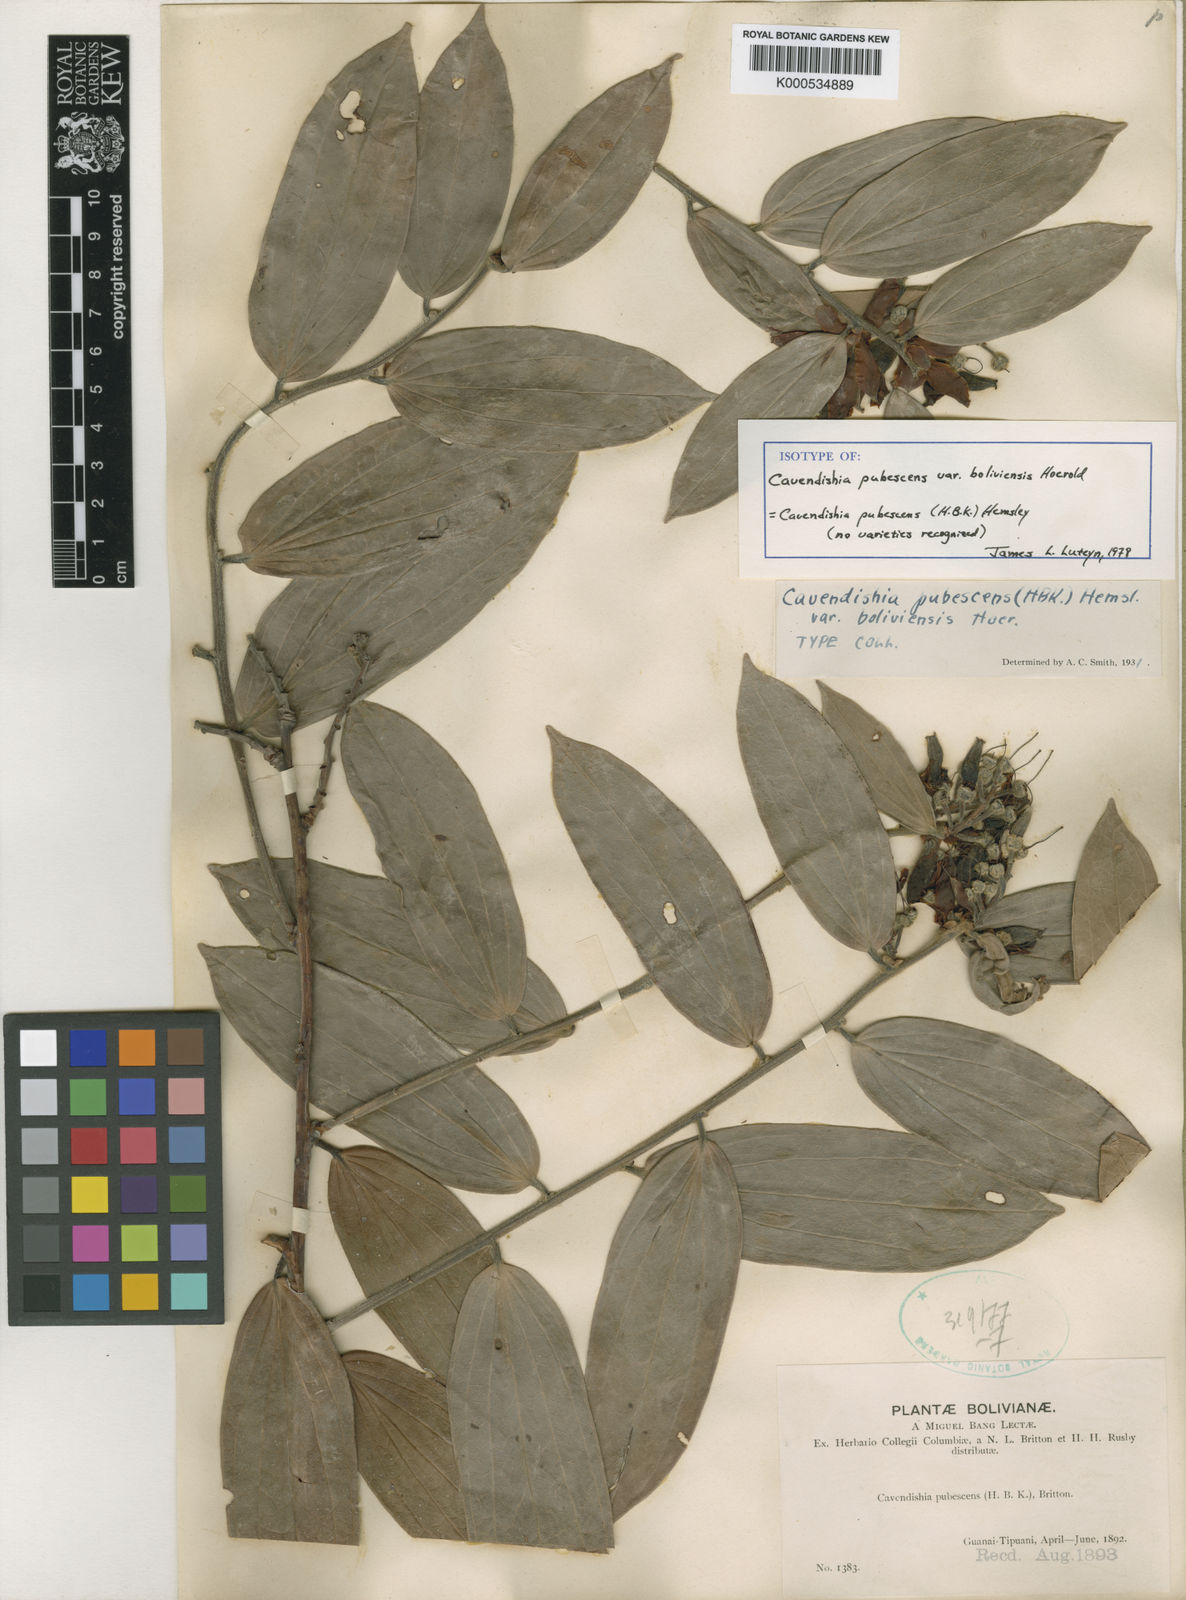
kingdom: Plantae
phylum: Tracheophyta
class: Magnoliopsida
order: Ericales
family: Ericaceae
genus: Cavendishia
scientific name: Cavendishia pubescens
